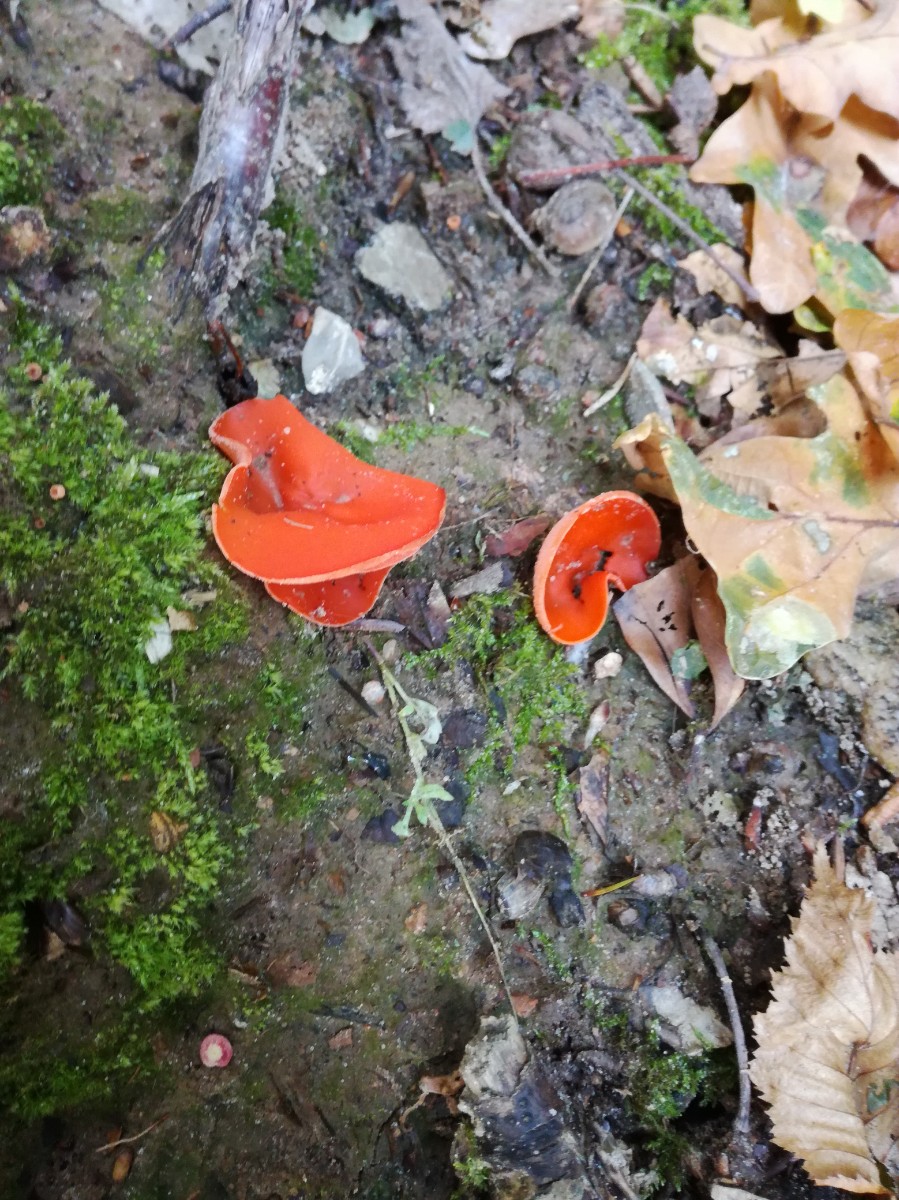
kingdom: Fungi
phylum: Ascomycota
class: Pezizomycetes
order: Pezizales
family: Pyronemataceae
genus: Aleuria
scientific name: Aleuria aurantia
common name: almindelig orangebæger
